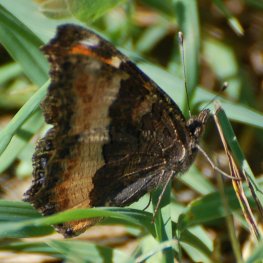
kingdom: Animalia
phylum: Arthropoda
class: Insecta
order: Lepidoptera
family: Nymphalidae
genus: Aglais
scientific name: Aglais milberti
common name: Milbert's Tortoiseshell
